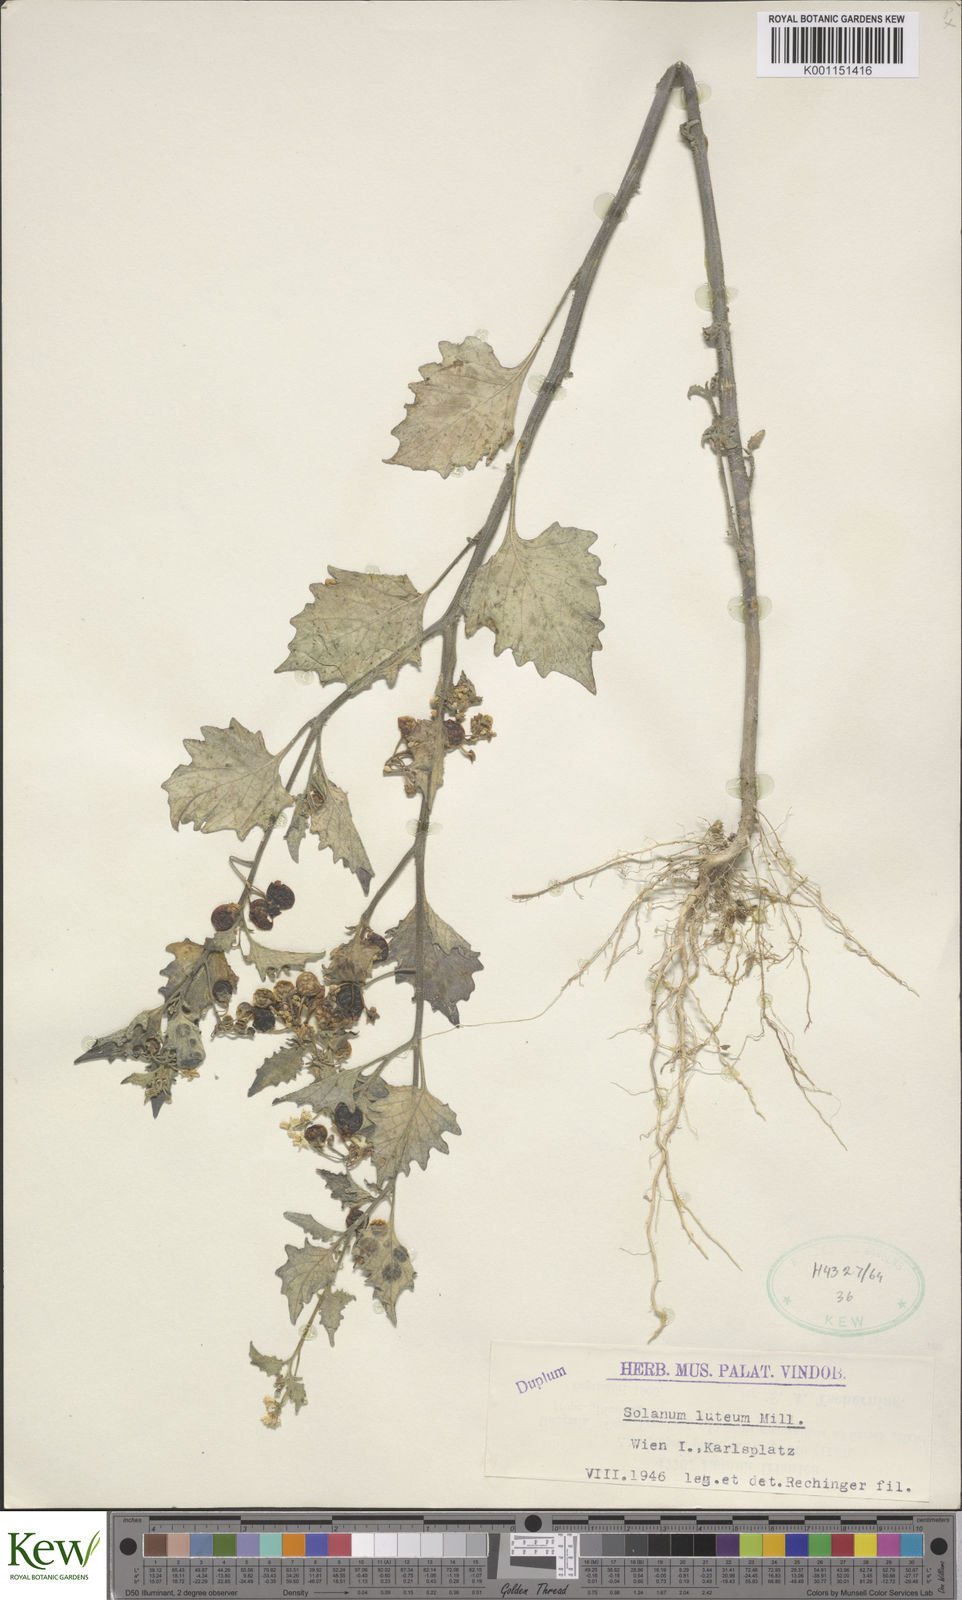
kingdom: Plantae
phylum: Tracheophyta
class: Magnoliopsida
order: Solanales
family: Solanaceae
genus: Solanum
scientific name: Solanum villosum
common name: Red nightshade
